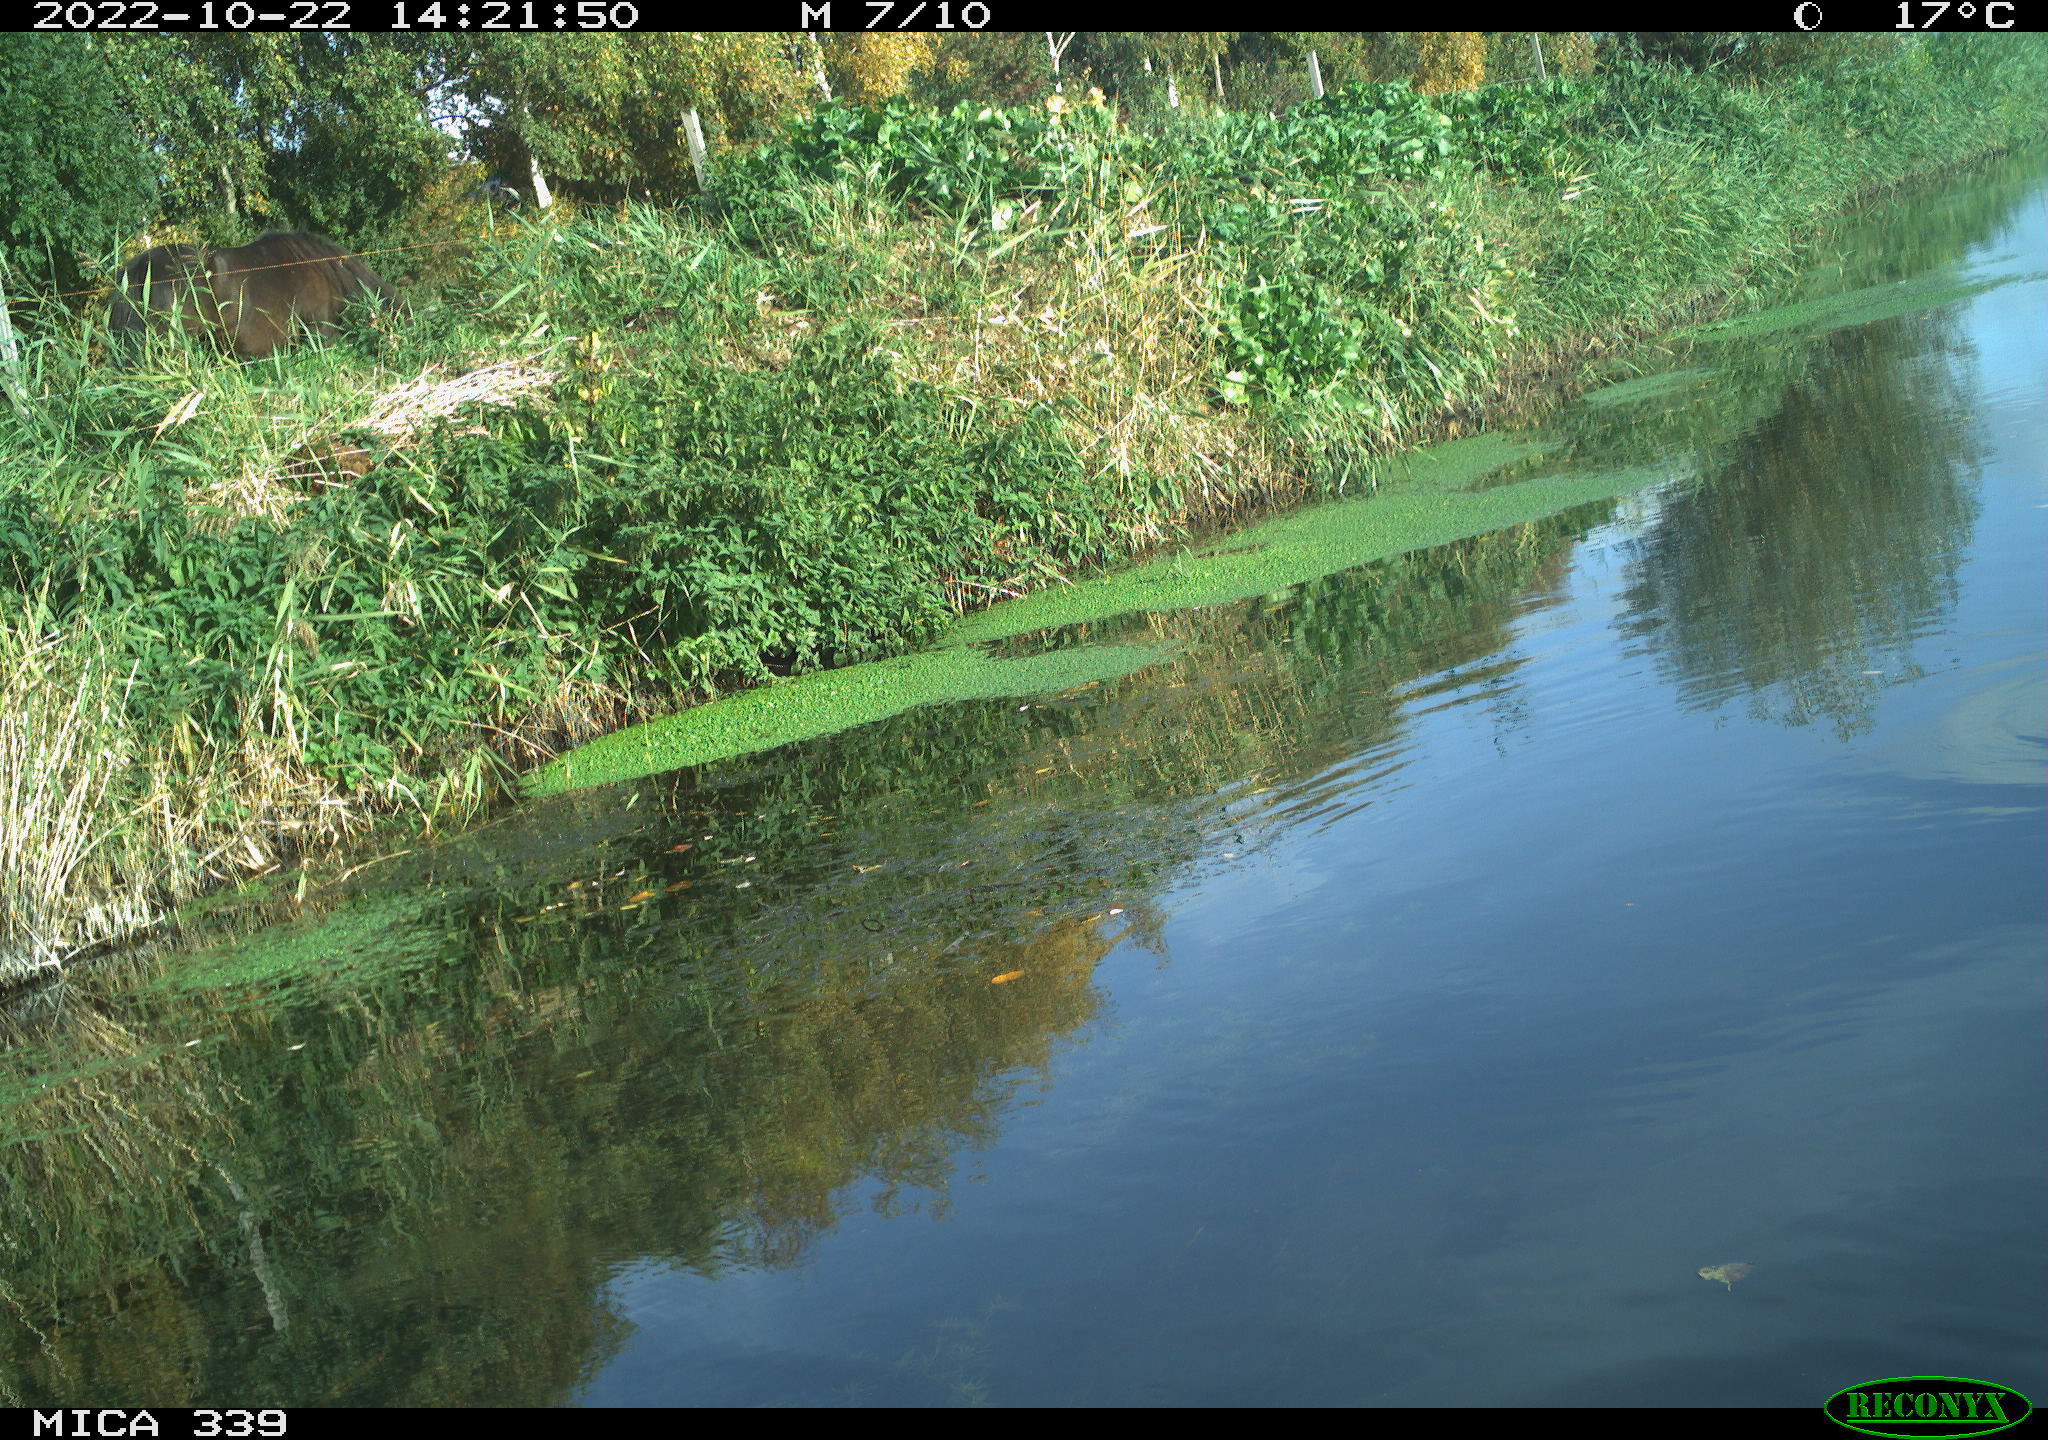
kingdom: Animalia
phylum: Chordata
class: Aves
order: Anseriformes
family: Anatidae
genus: Anas
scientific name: Anas platyrhynchos
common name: Mallard
